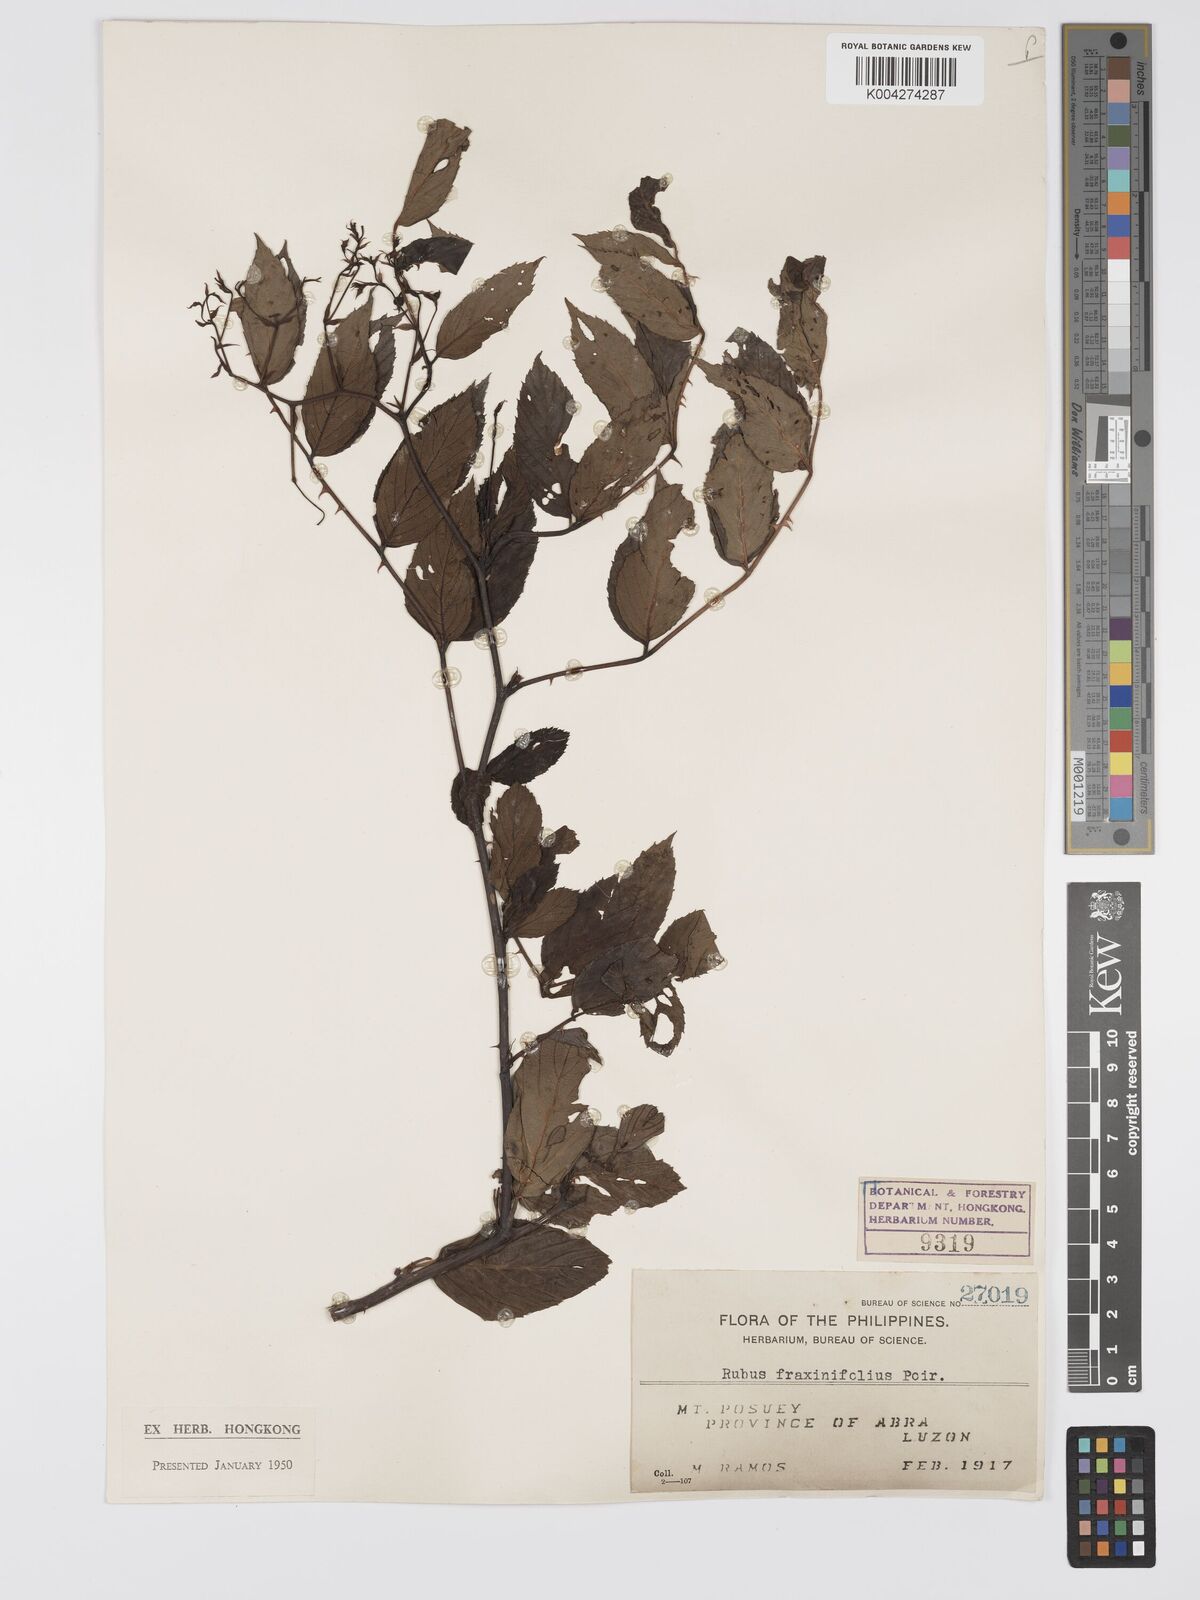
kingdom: Plantae
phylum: Tracheophyta
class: Magnoliopsida
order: Rosales
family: Rosaceae
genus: Rubus
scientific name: Rubus fraxinifolius
